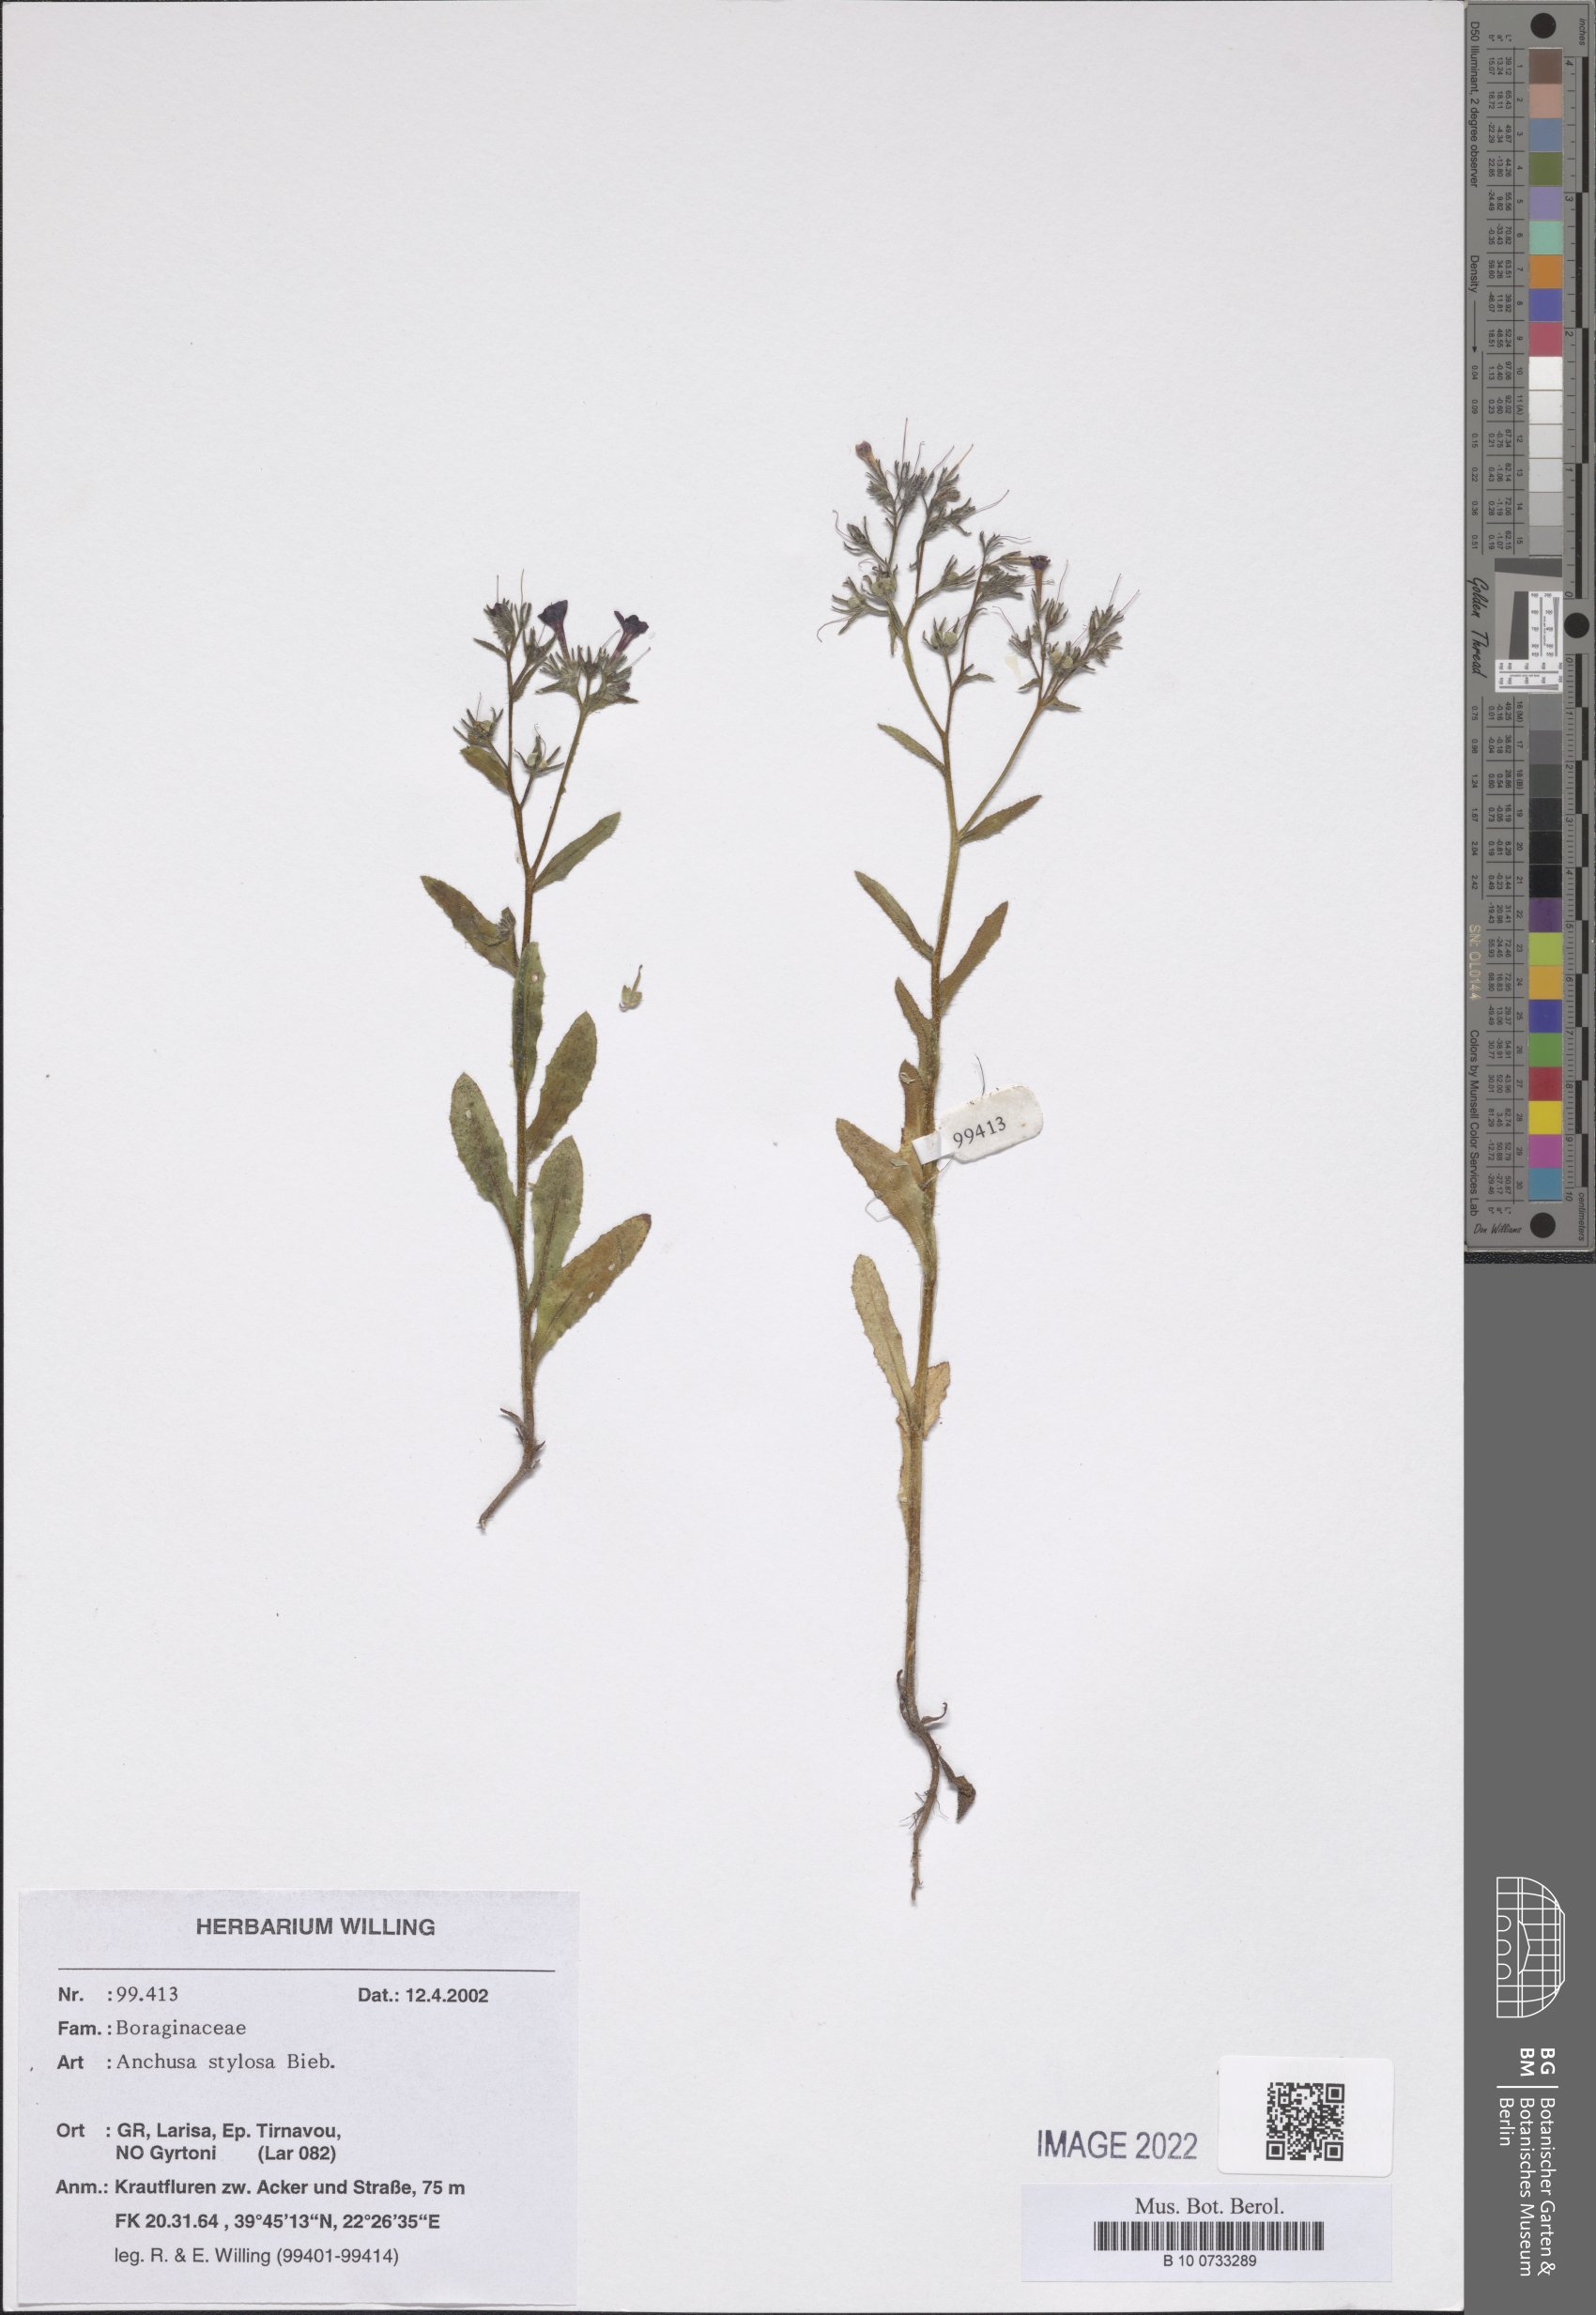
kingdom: Plantae
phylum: Tracheophyta
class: Magnoliopsida
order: Boraginales
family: Boraginaceae
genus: Anchusa
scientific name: Anchusa stylosa
